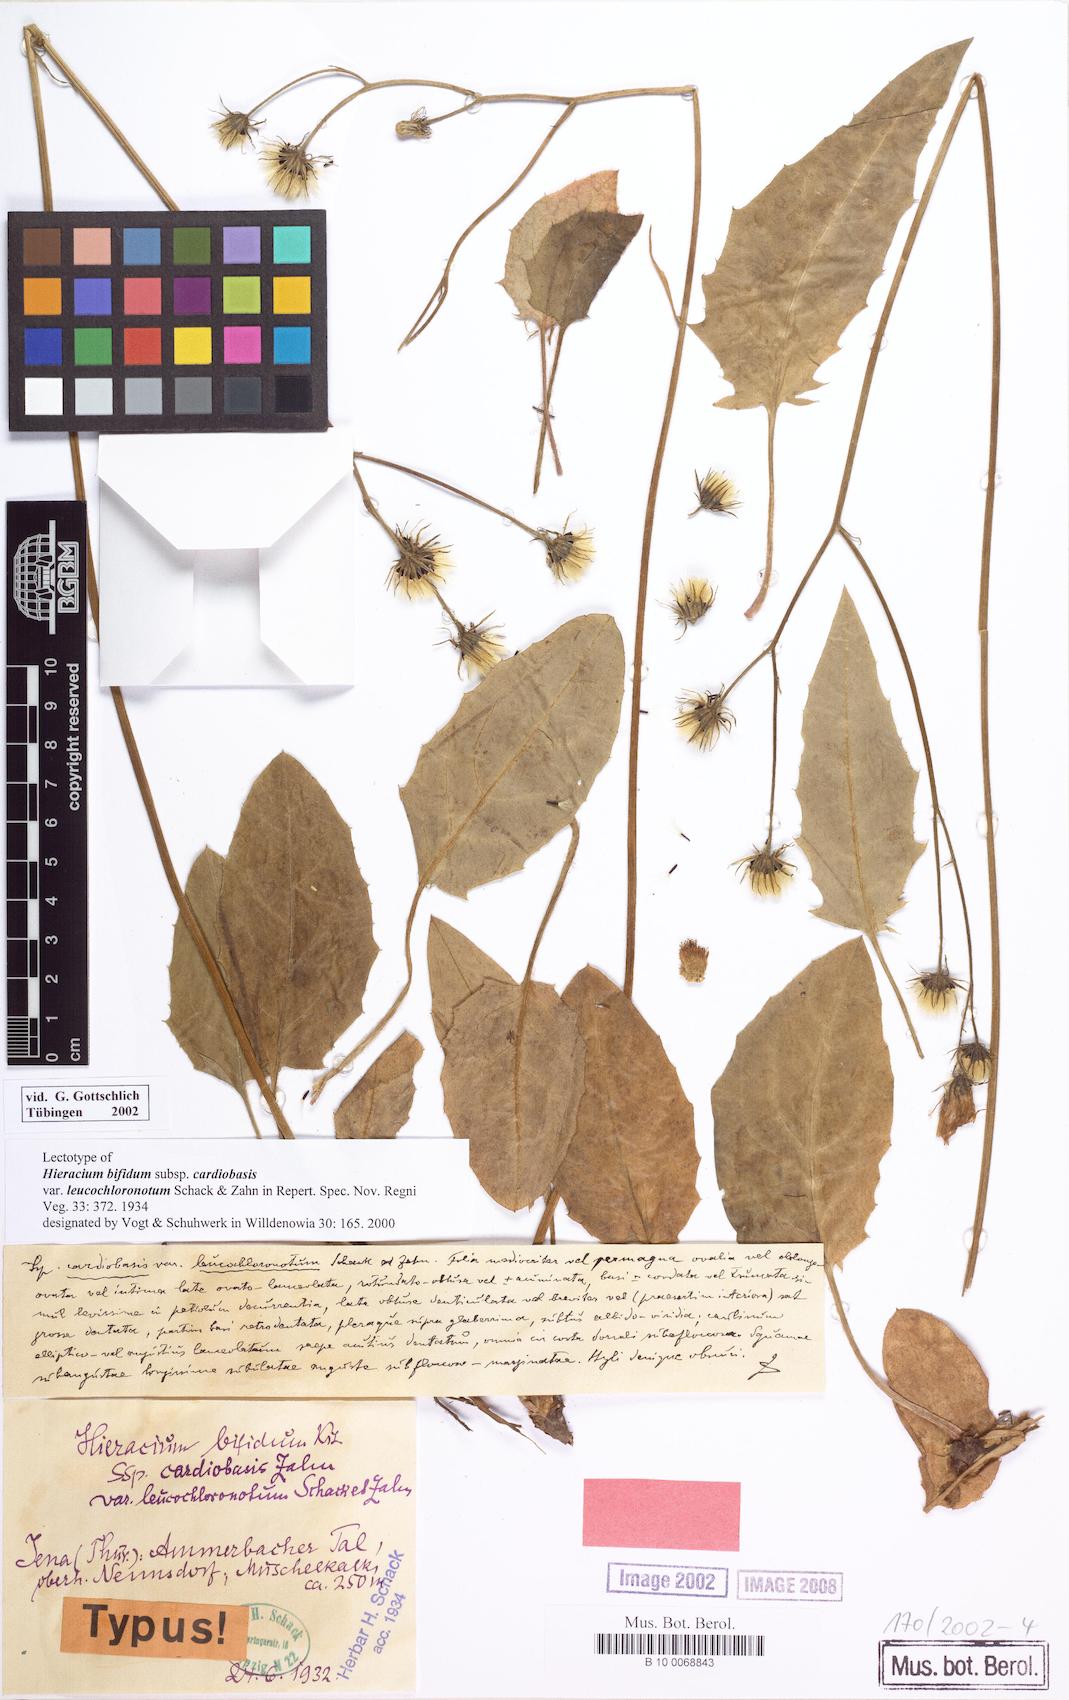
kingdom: Plantae
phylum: Tracheophyta
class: Magnoliopsida
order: Asterales
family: Asteraceae
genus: Hieracium
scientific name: Hieracium bifidum
